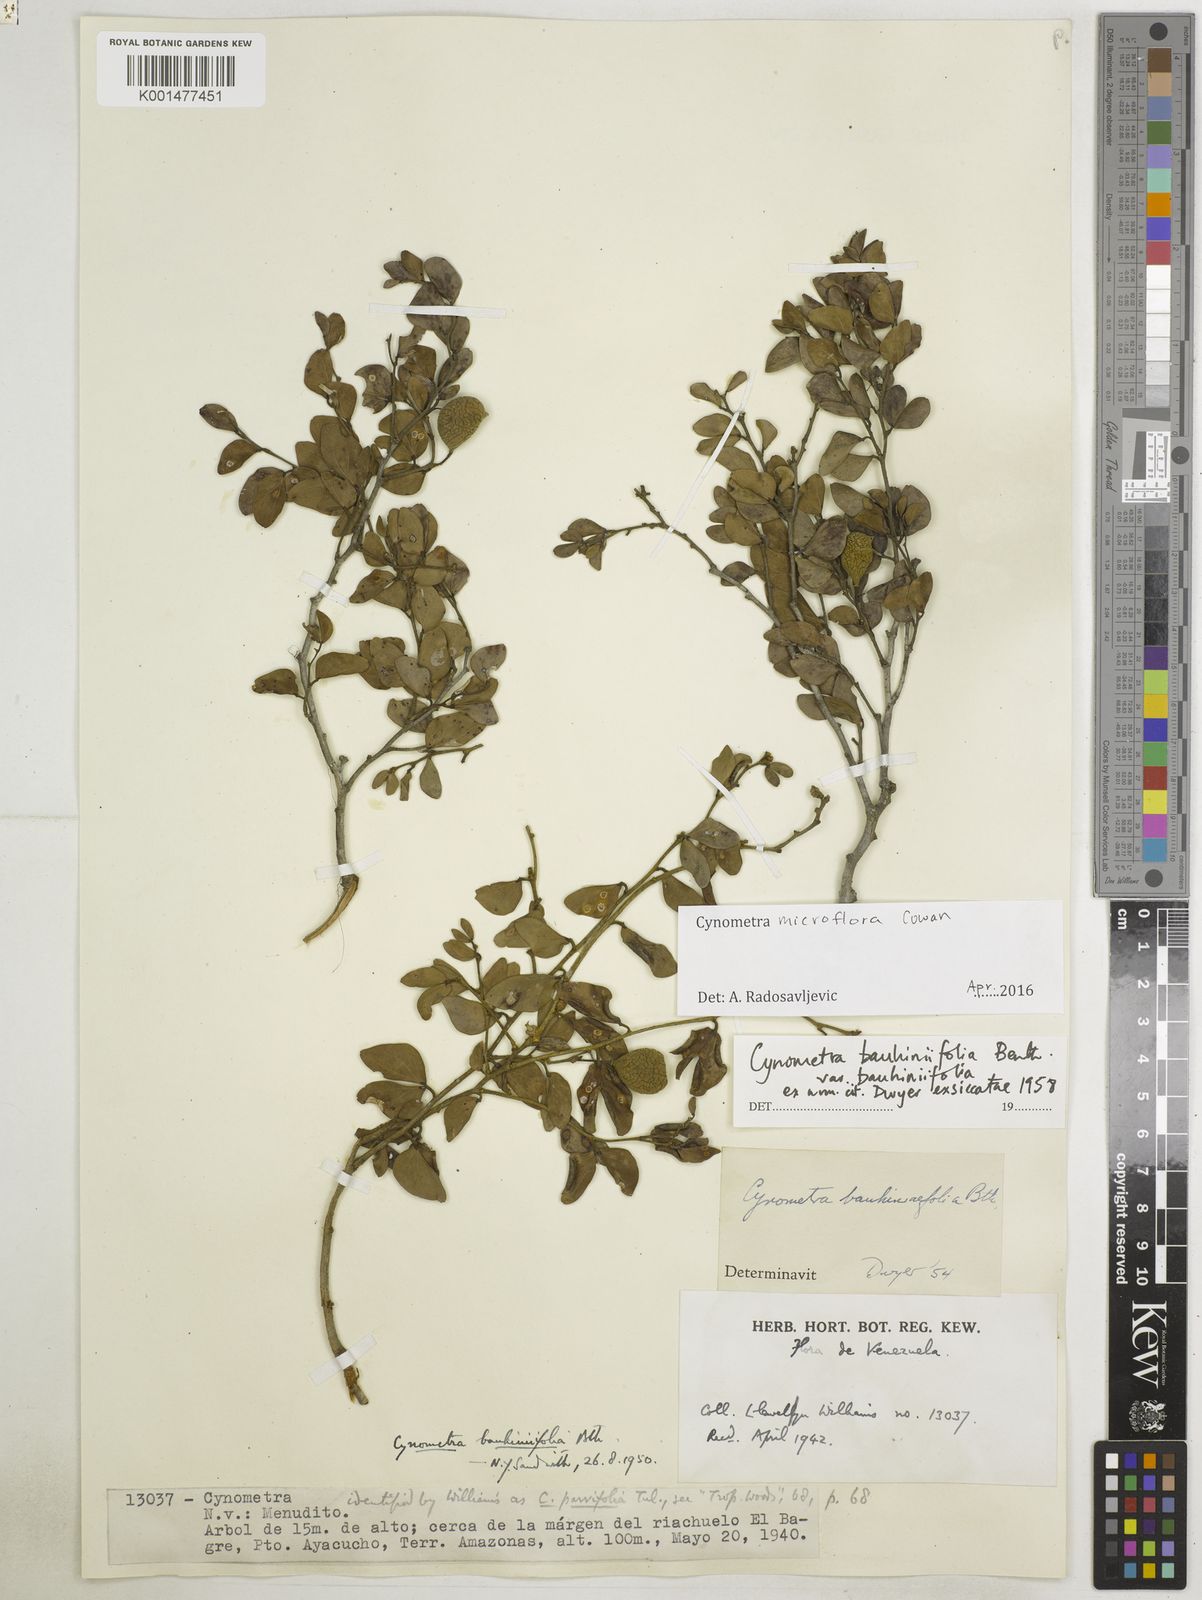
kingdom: Plantae
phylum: Tracheophyta
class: Magnoliopsida
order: Fabales
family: Fabaceae
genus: Cynometra
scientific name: Cynometra bauhiniifolia
